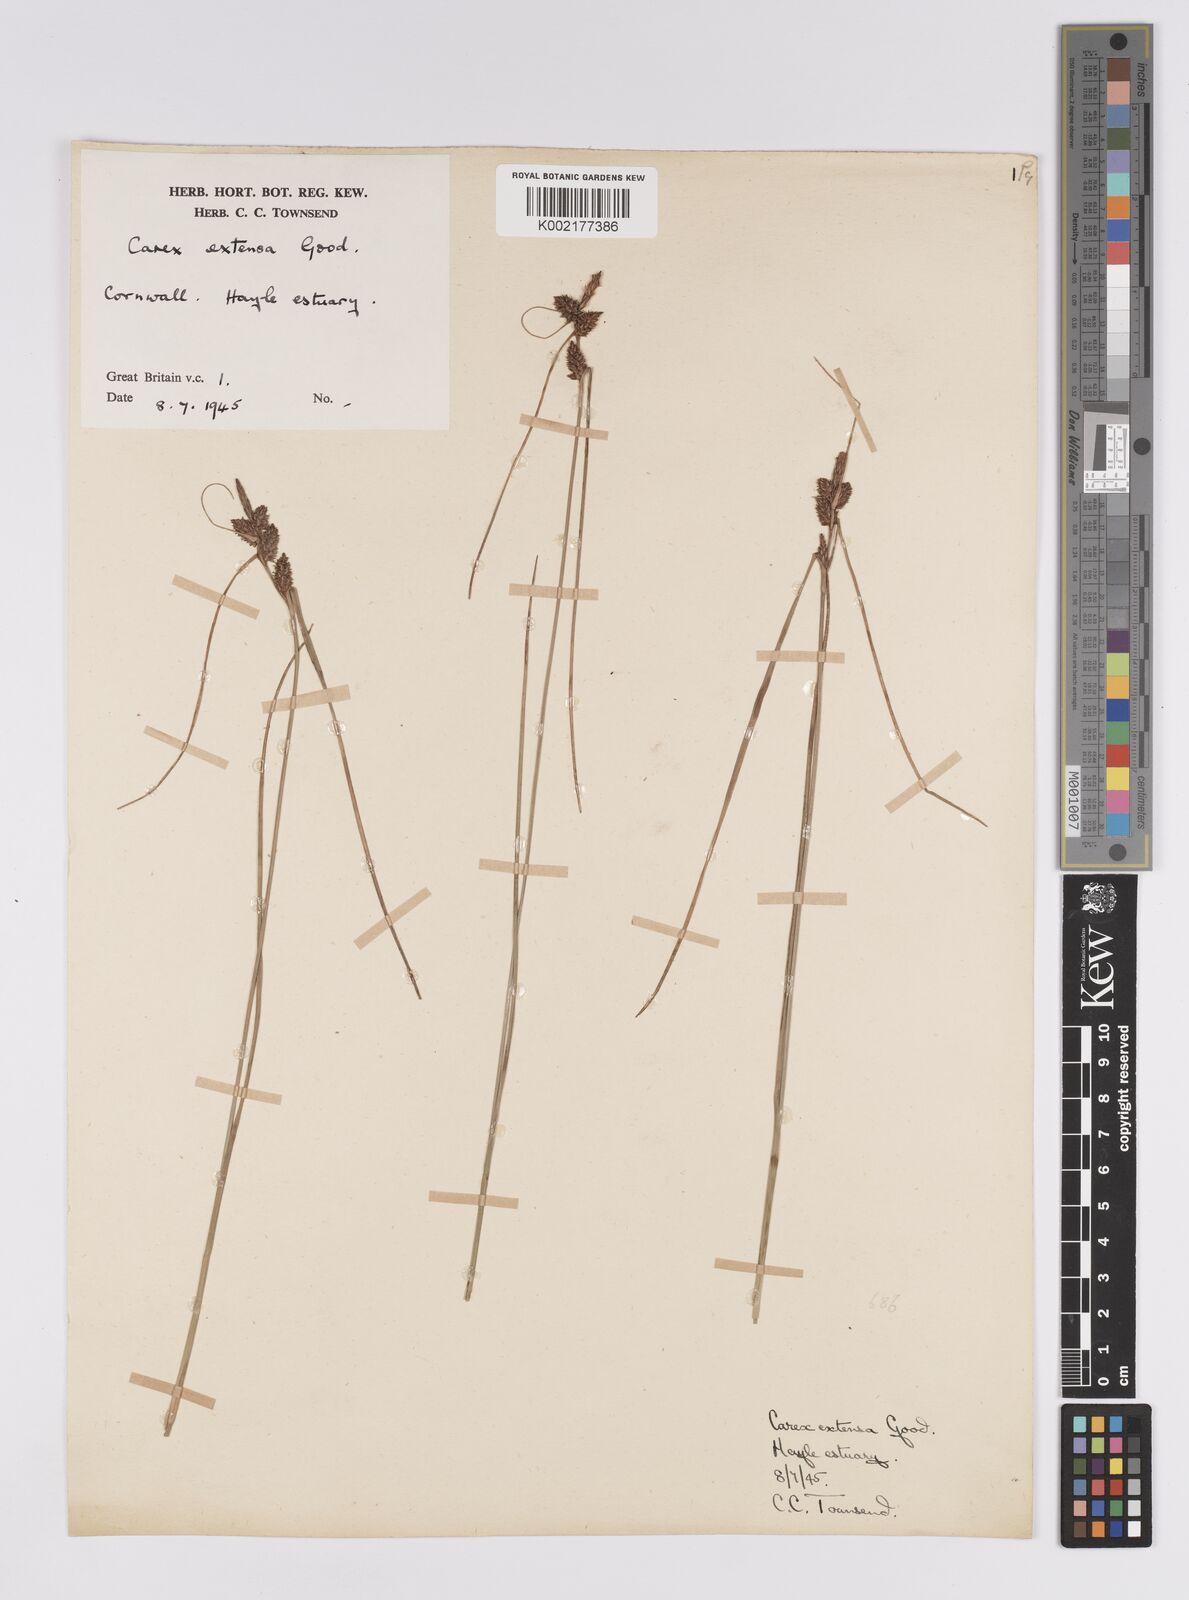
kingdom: Plantae
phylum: Tracheophyta
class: Liliopsida
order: Poales
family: Cyperaceae
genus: Carex
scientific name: Carex extensa
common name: Long-bracted sedge
